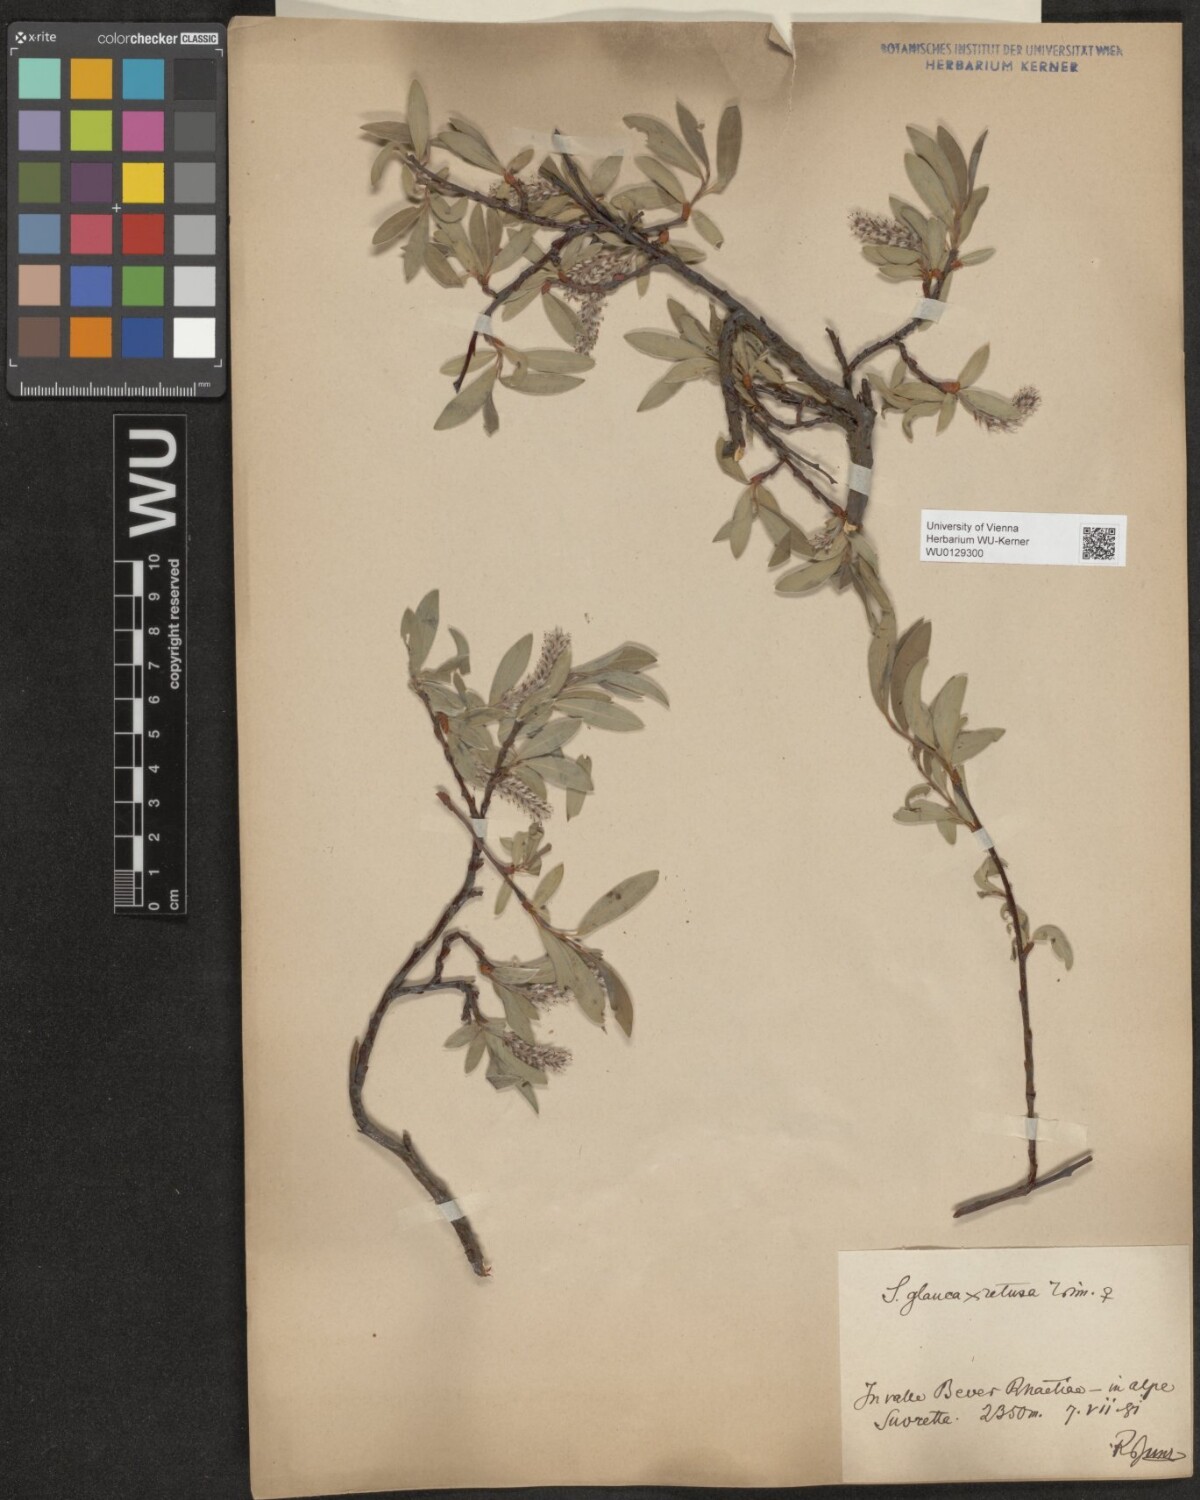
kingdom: Plantae
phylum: Tracheophyta
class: Magnoliopsida
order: Malpighiales
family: Salicaceae
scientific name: Salicaceae
